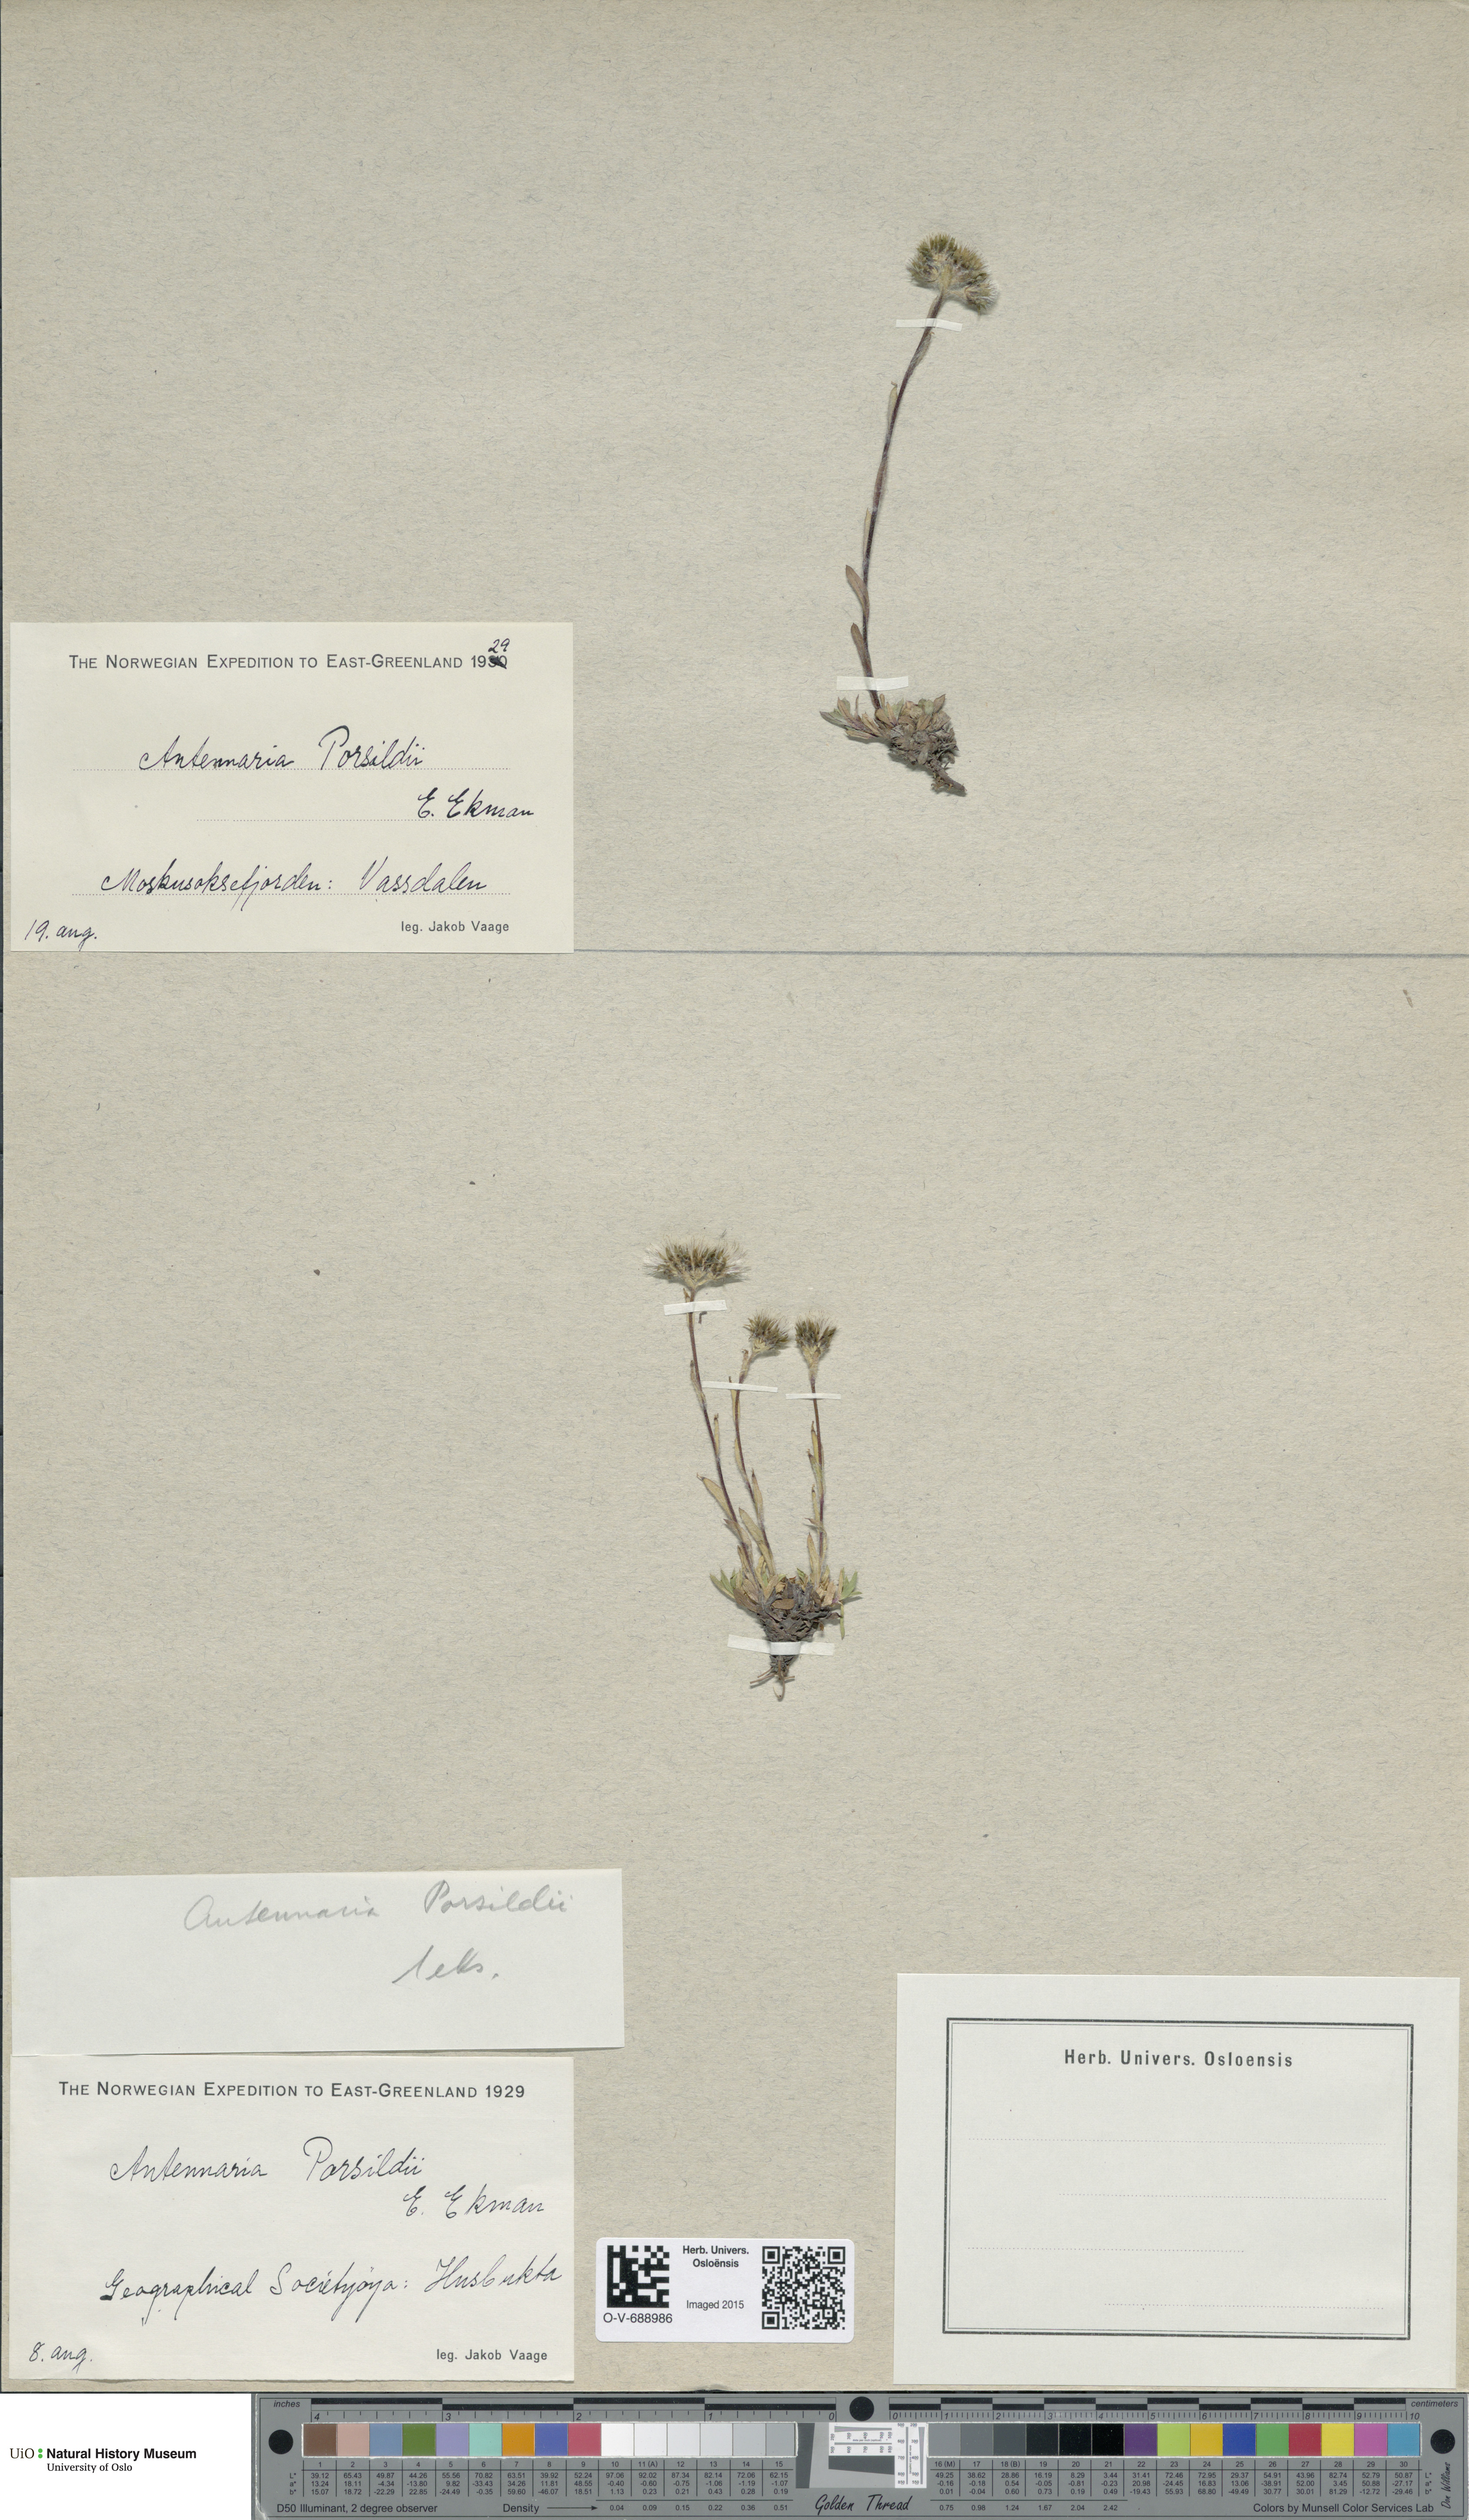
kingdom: Plantae
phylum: Tracheophyta
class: Magnoliopsida
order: Asterales
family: Asteraceae
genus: Antennaria
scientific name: Antennaria porsildii
